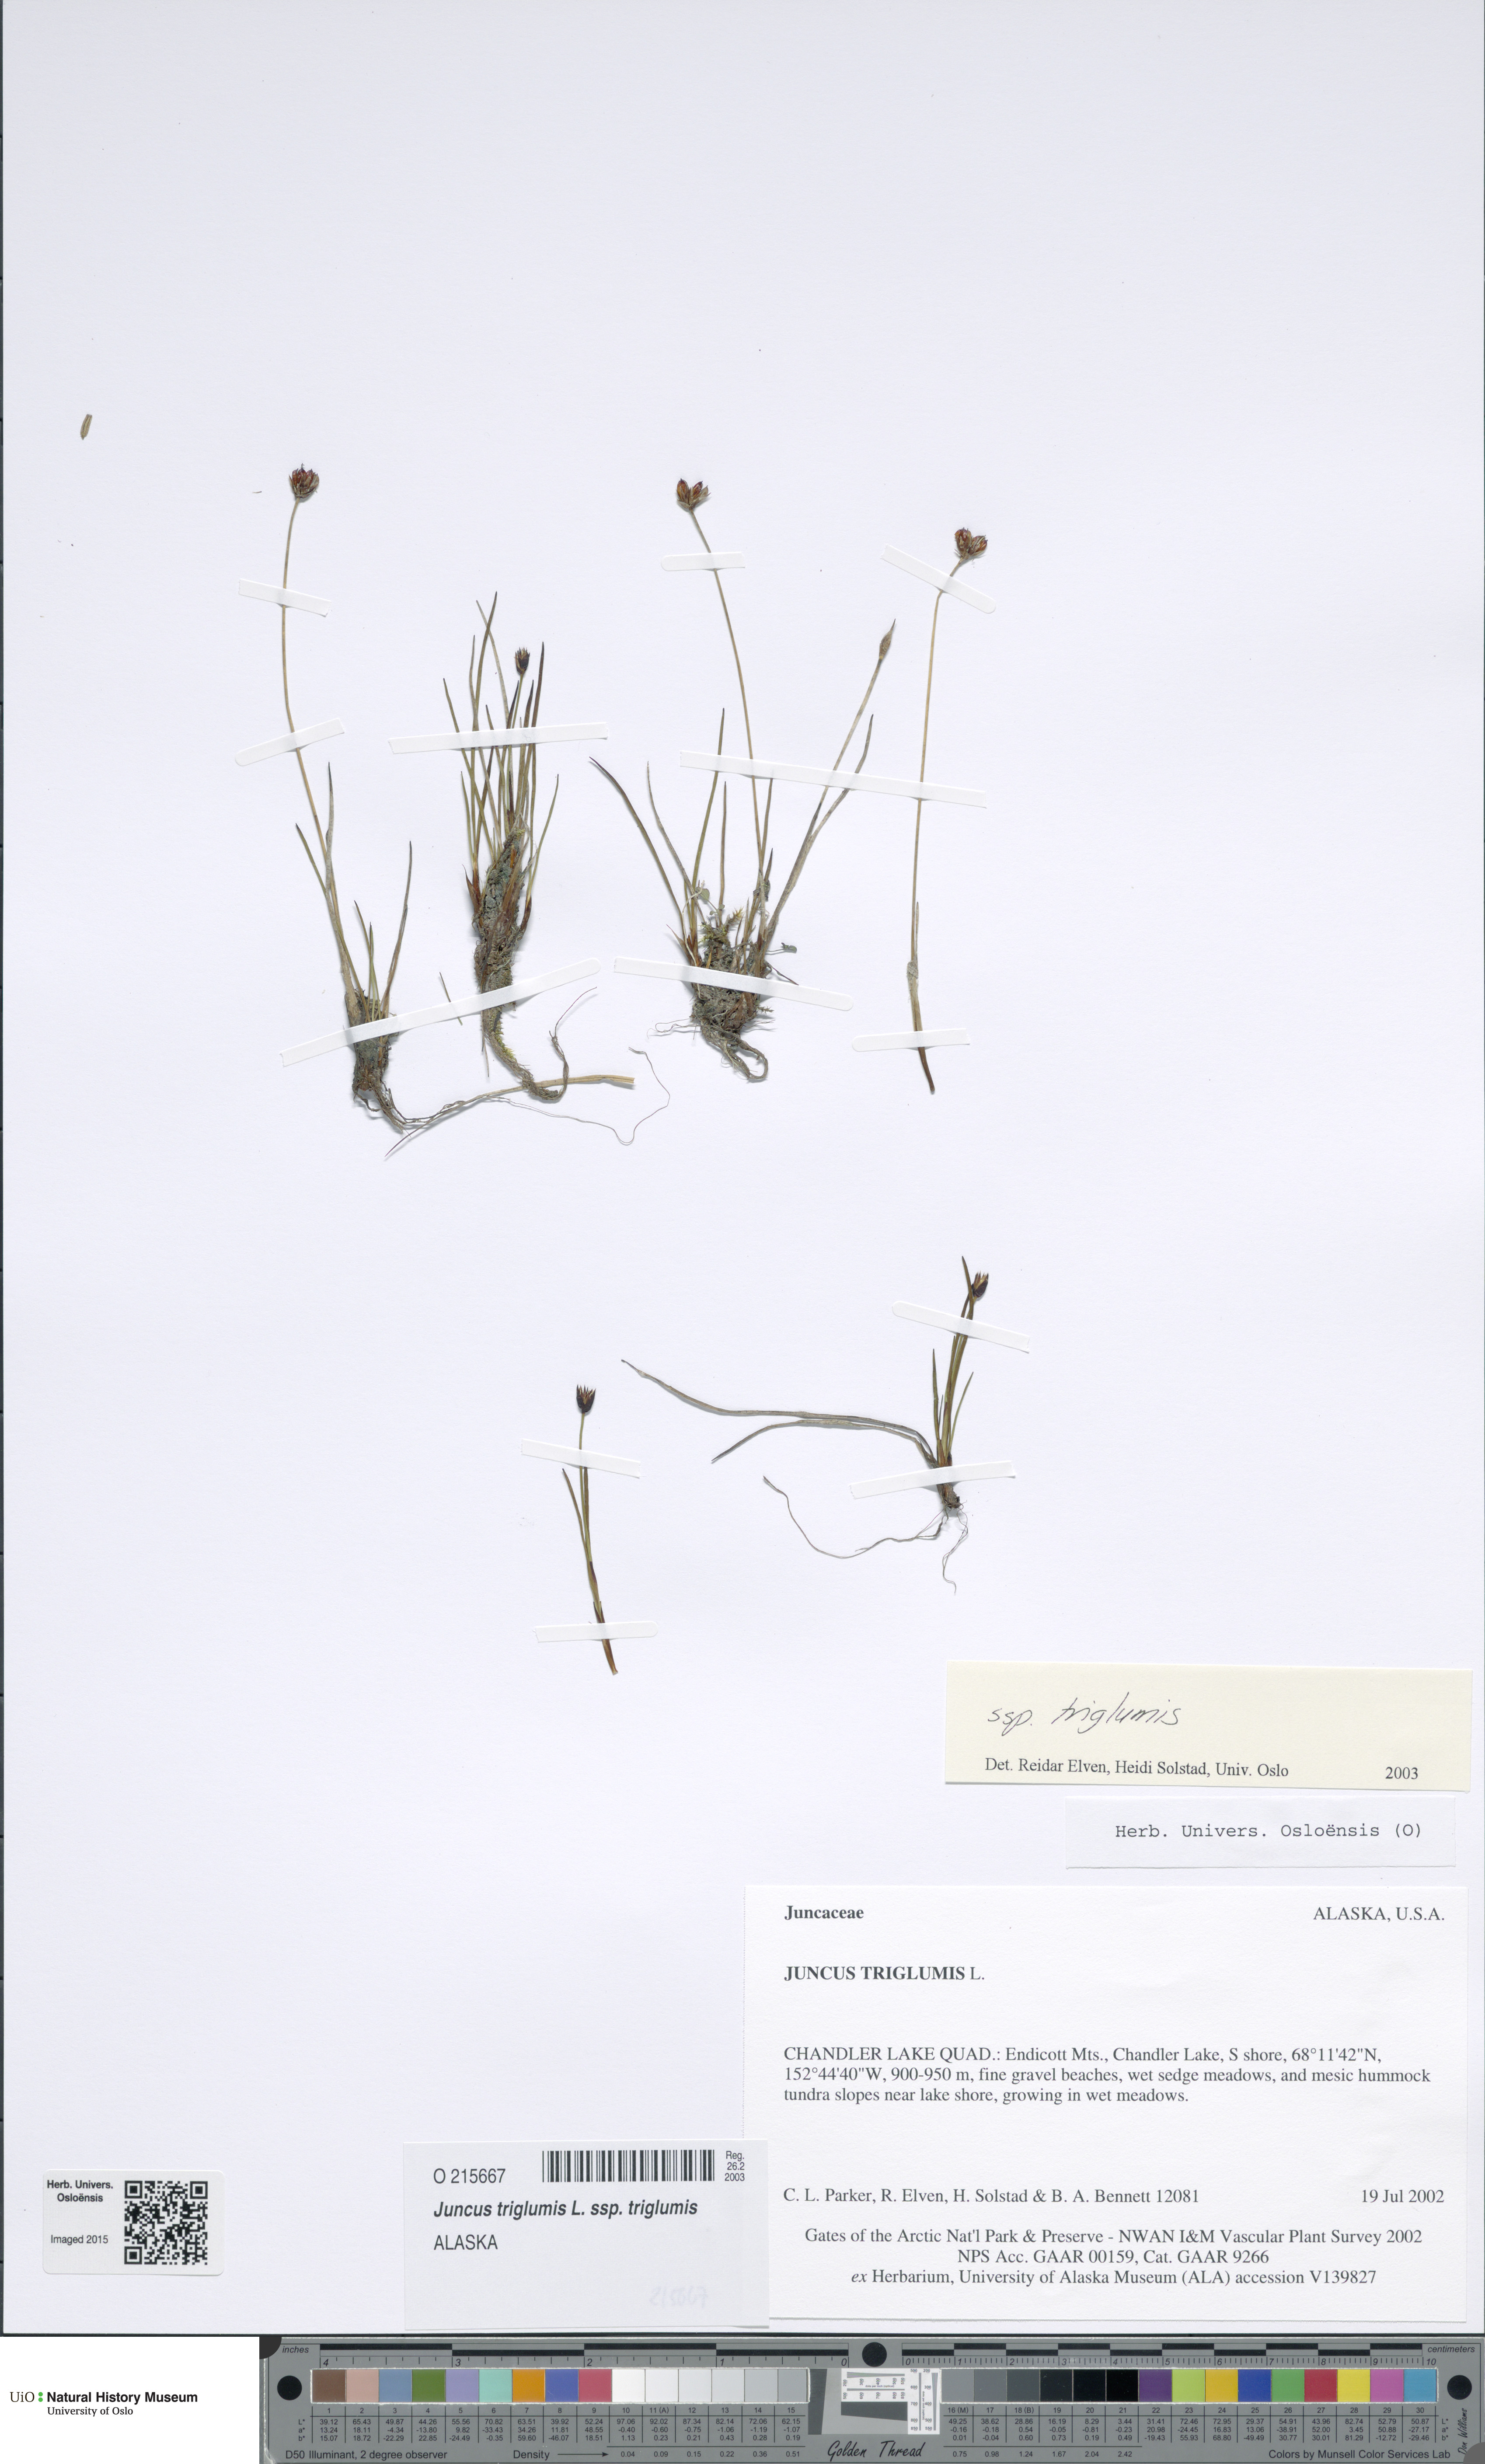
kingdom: Plantae
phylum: Tracheophyta
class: Liliopsida
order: Poales
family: Juncaceae
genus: Juncus
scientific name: Juncus triglumis
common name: Three-flowered rush
